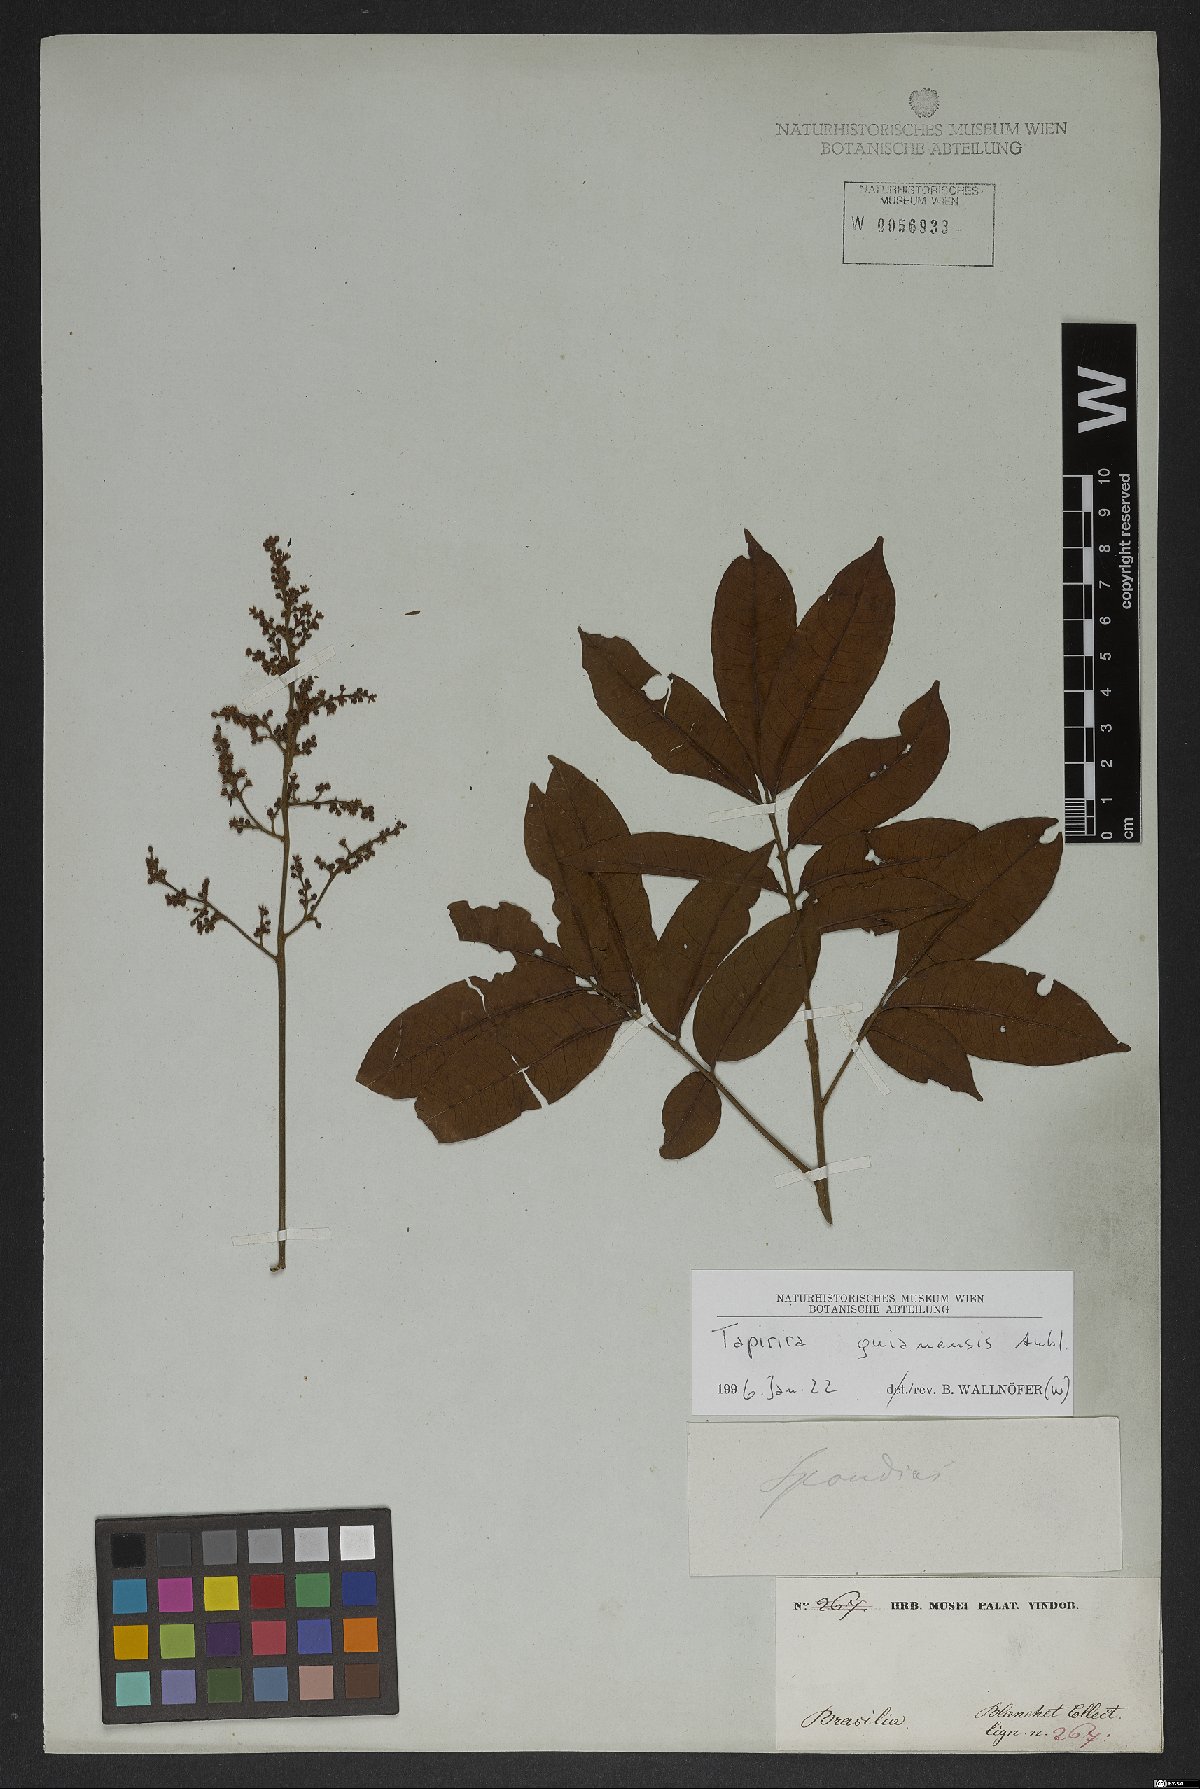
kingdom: Plantae
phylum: Tracheophyta
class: Magnoliopsida
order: Sapindales
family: Anacardiaceae
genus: Tapirira
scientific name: Tapirira guianensis
